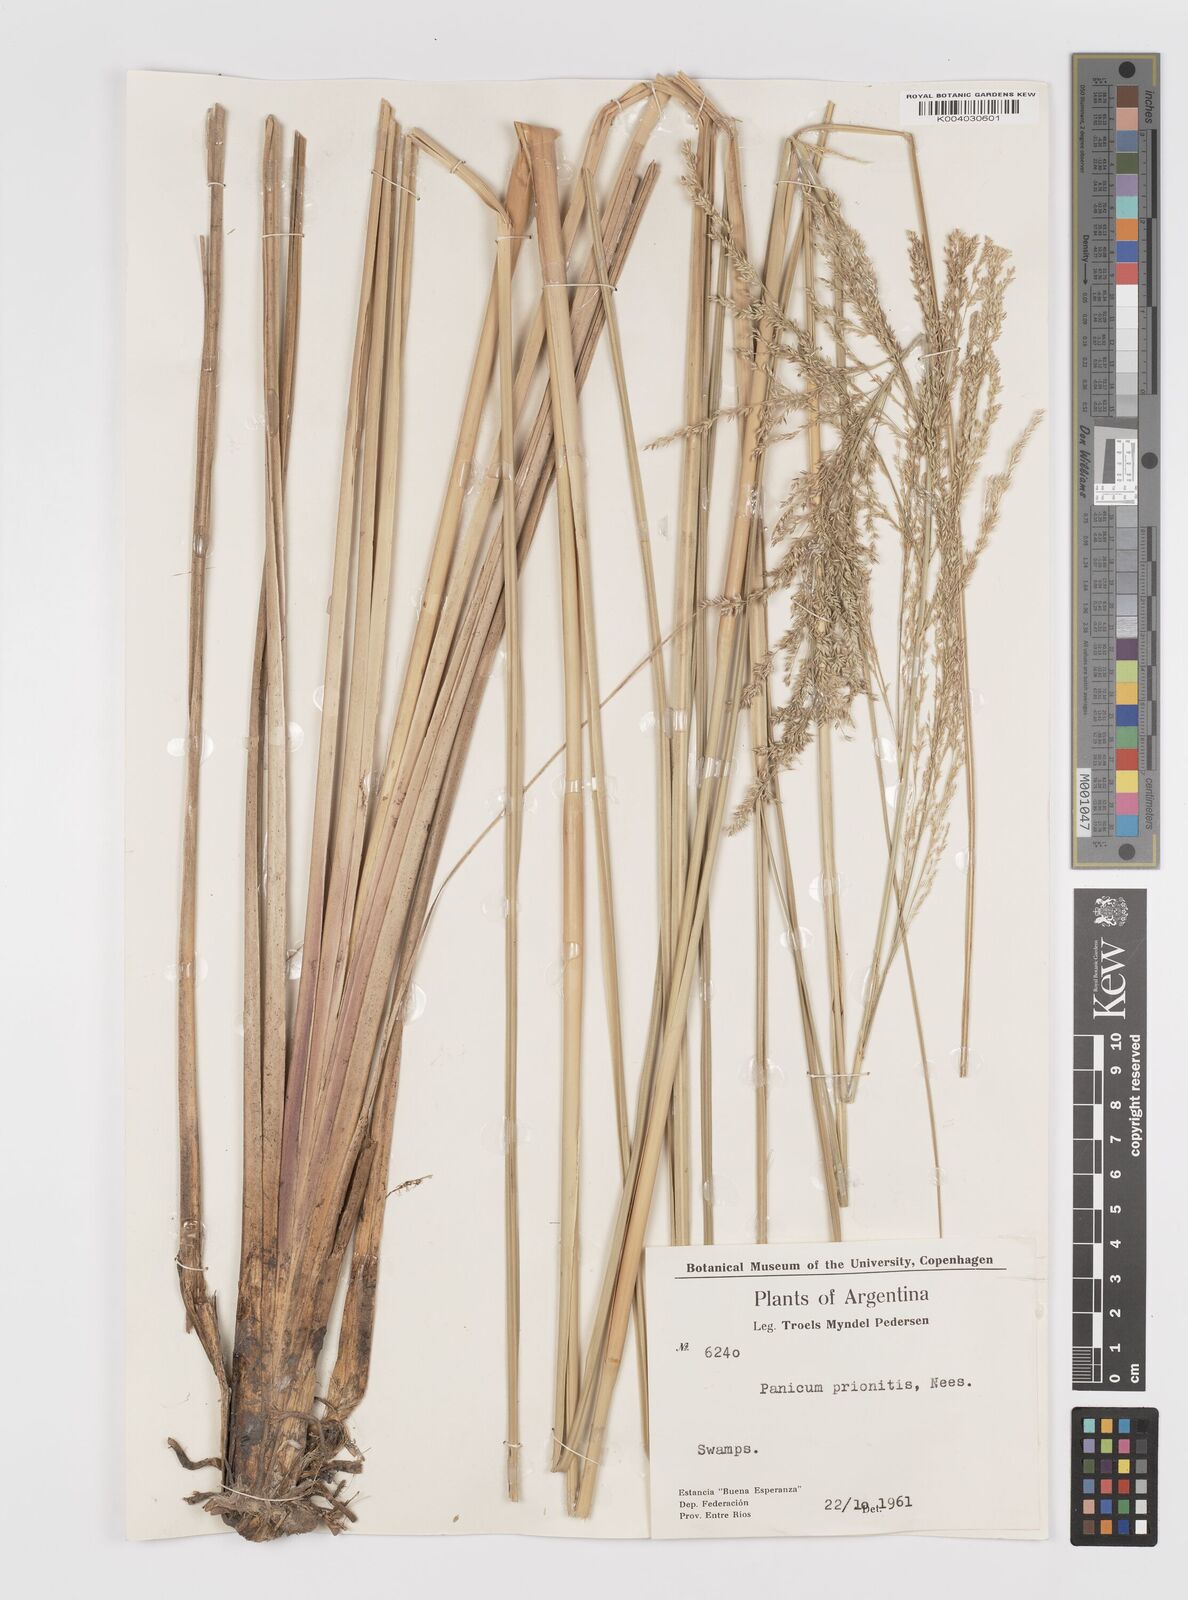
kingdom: Plantae
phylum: Tracheophyta
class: Liliopsida
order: Poales
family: Poaceae
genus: Coleataenia
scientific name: Coleataenia prionitis
